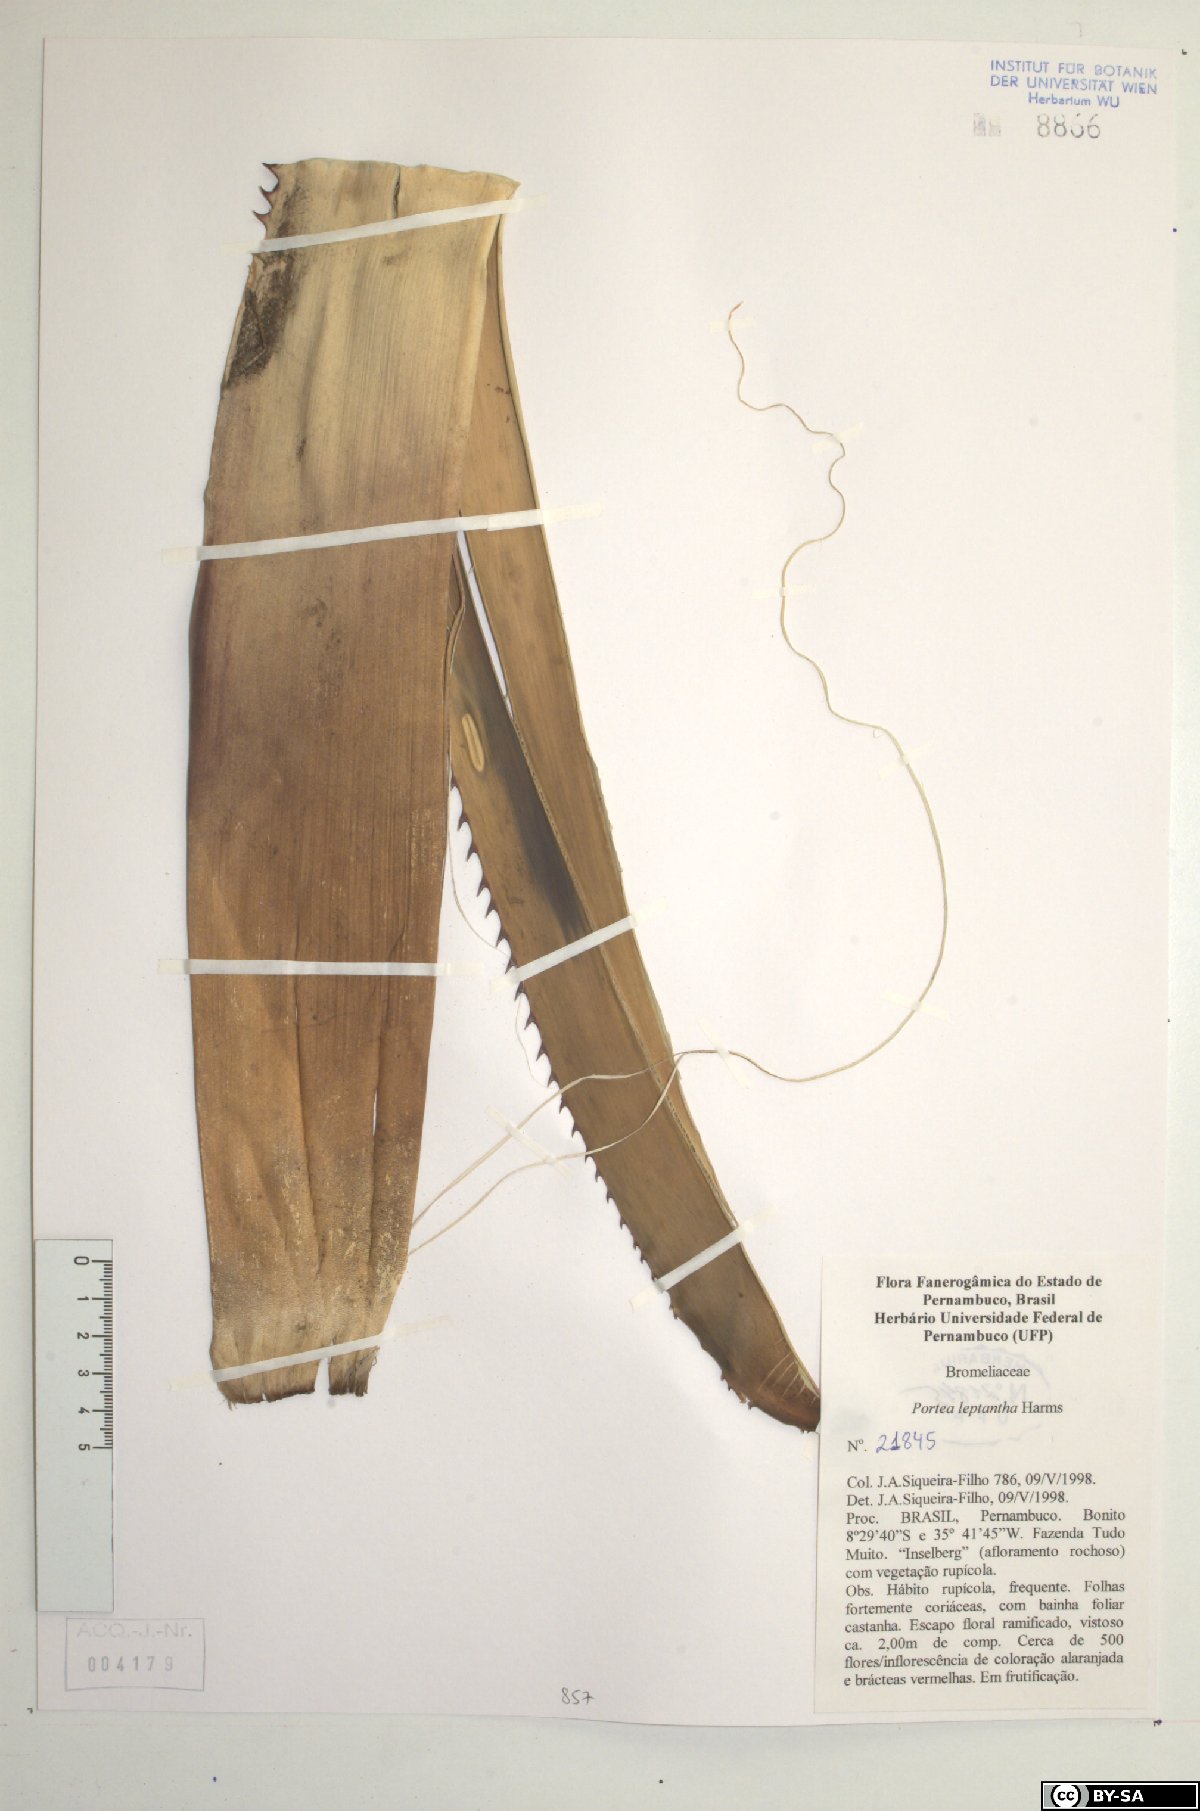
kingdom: Plantae
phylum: Tracheophyta
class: Liliopsida
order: Poales
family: Bromeliaceae
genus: Aechmea
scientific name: Aechmea leptantha
